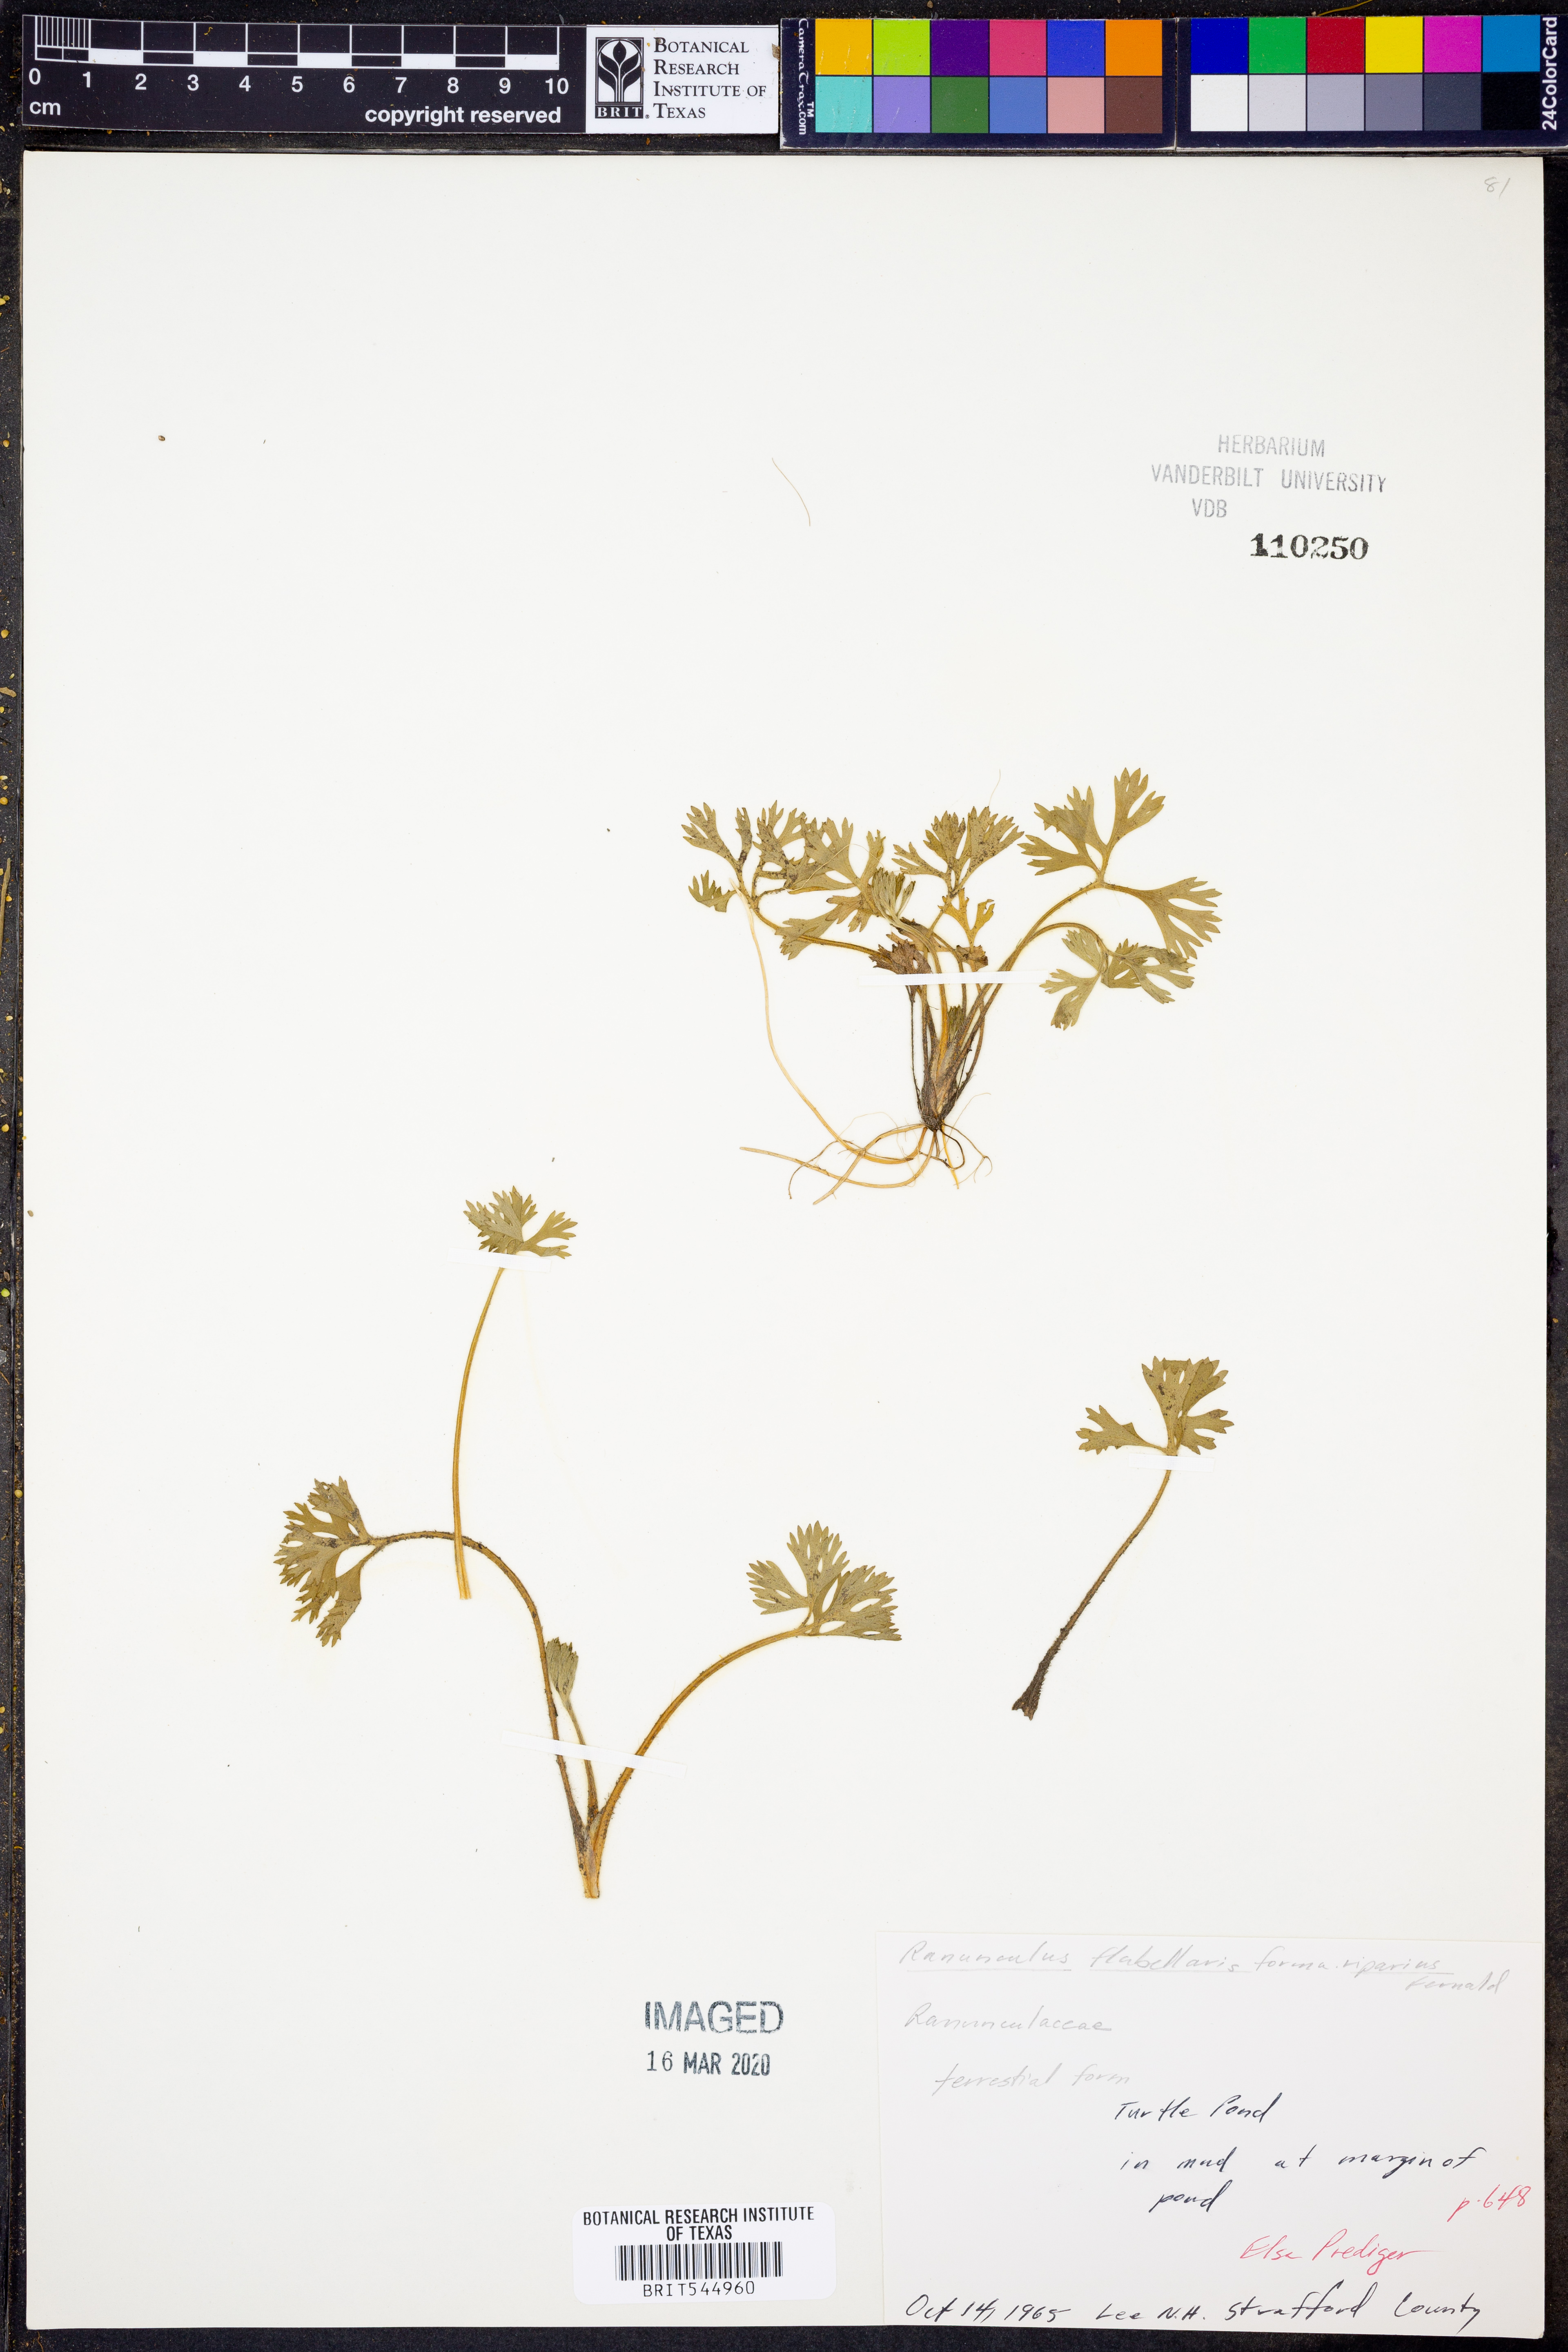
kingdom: Plantae
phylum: Tracheophyta
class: Magnoliopsida
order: Ranunculales
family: Ranunculaceae
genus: Ranunculus
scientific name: Ranunculus flabellaris
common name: Yellow water-crowfoot
